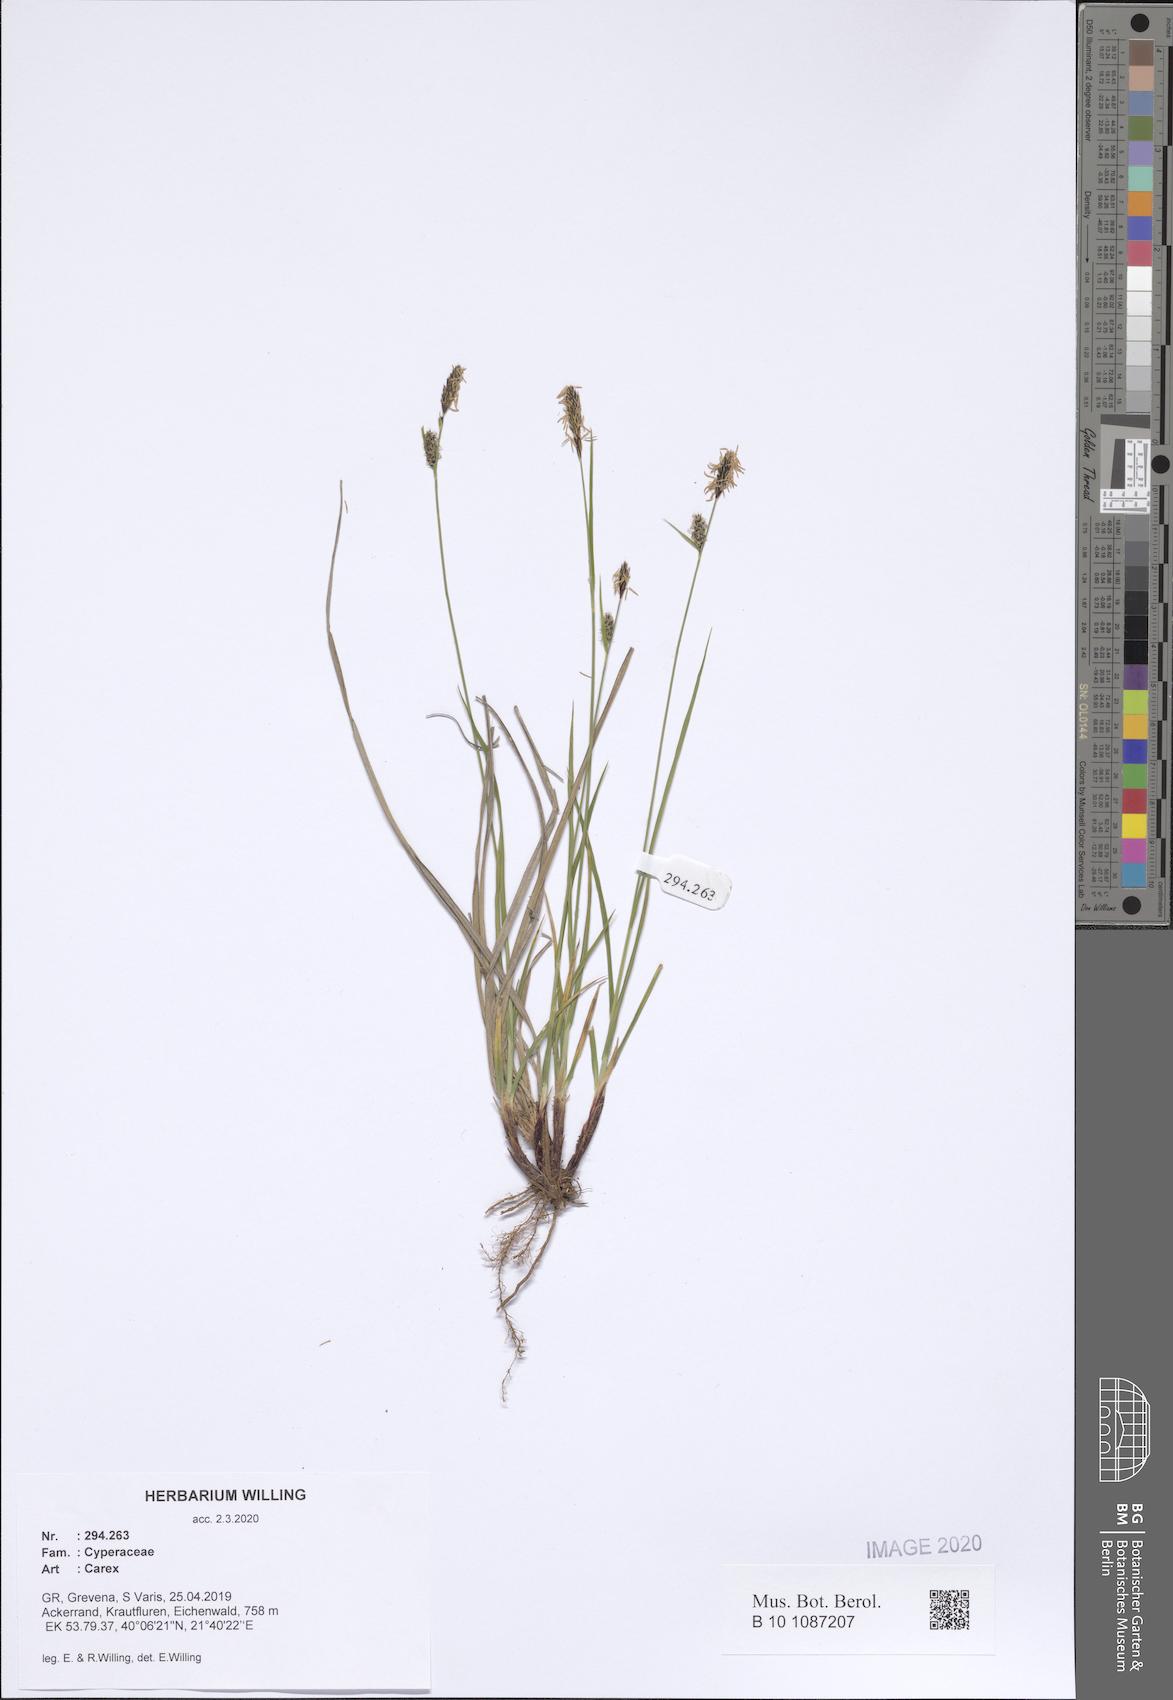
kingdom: Plantae
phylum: Tracheophyta
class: Liliopsida
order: Poales
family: Cyperaceae
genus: Carex
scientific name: Carex
